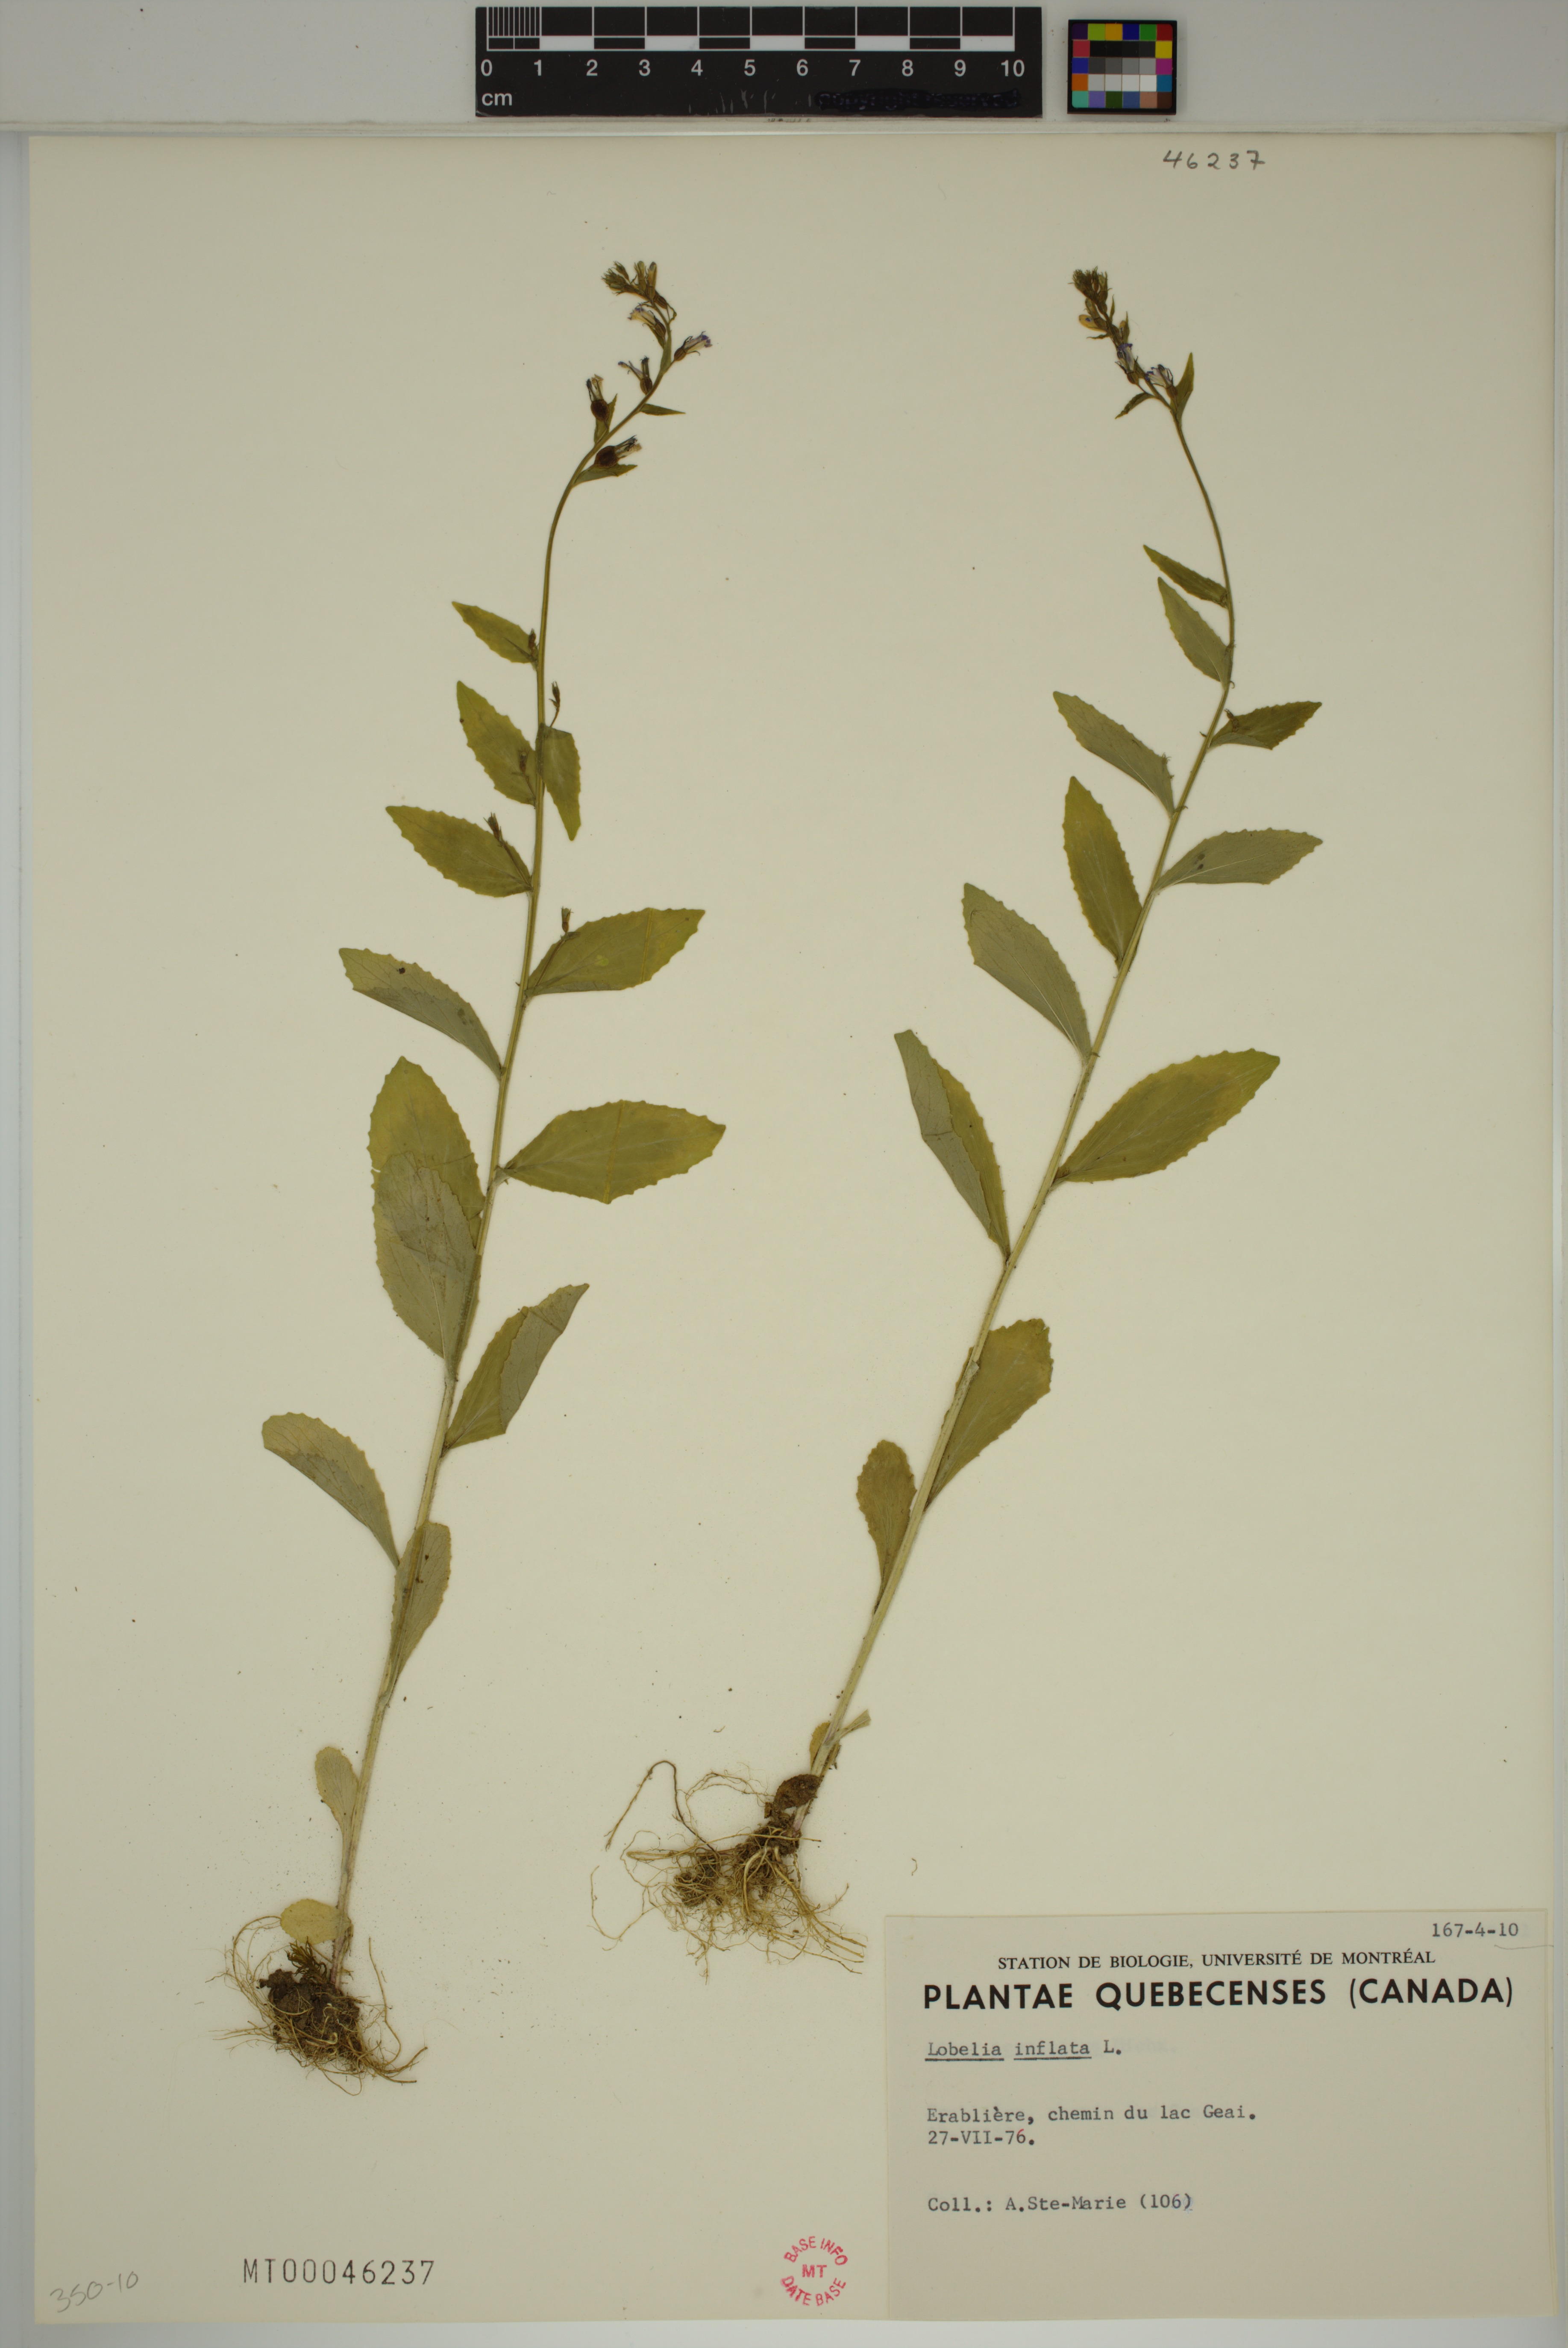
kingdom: Plantae
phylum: Tracheophyta
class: Magnoliopsida
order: Asterales
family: Campanulaceae
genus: Lobelia
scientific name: Lobelia inflata
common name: Indian tobacco
